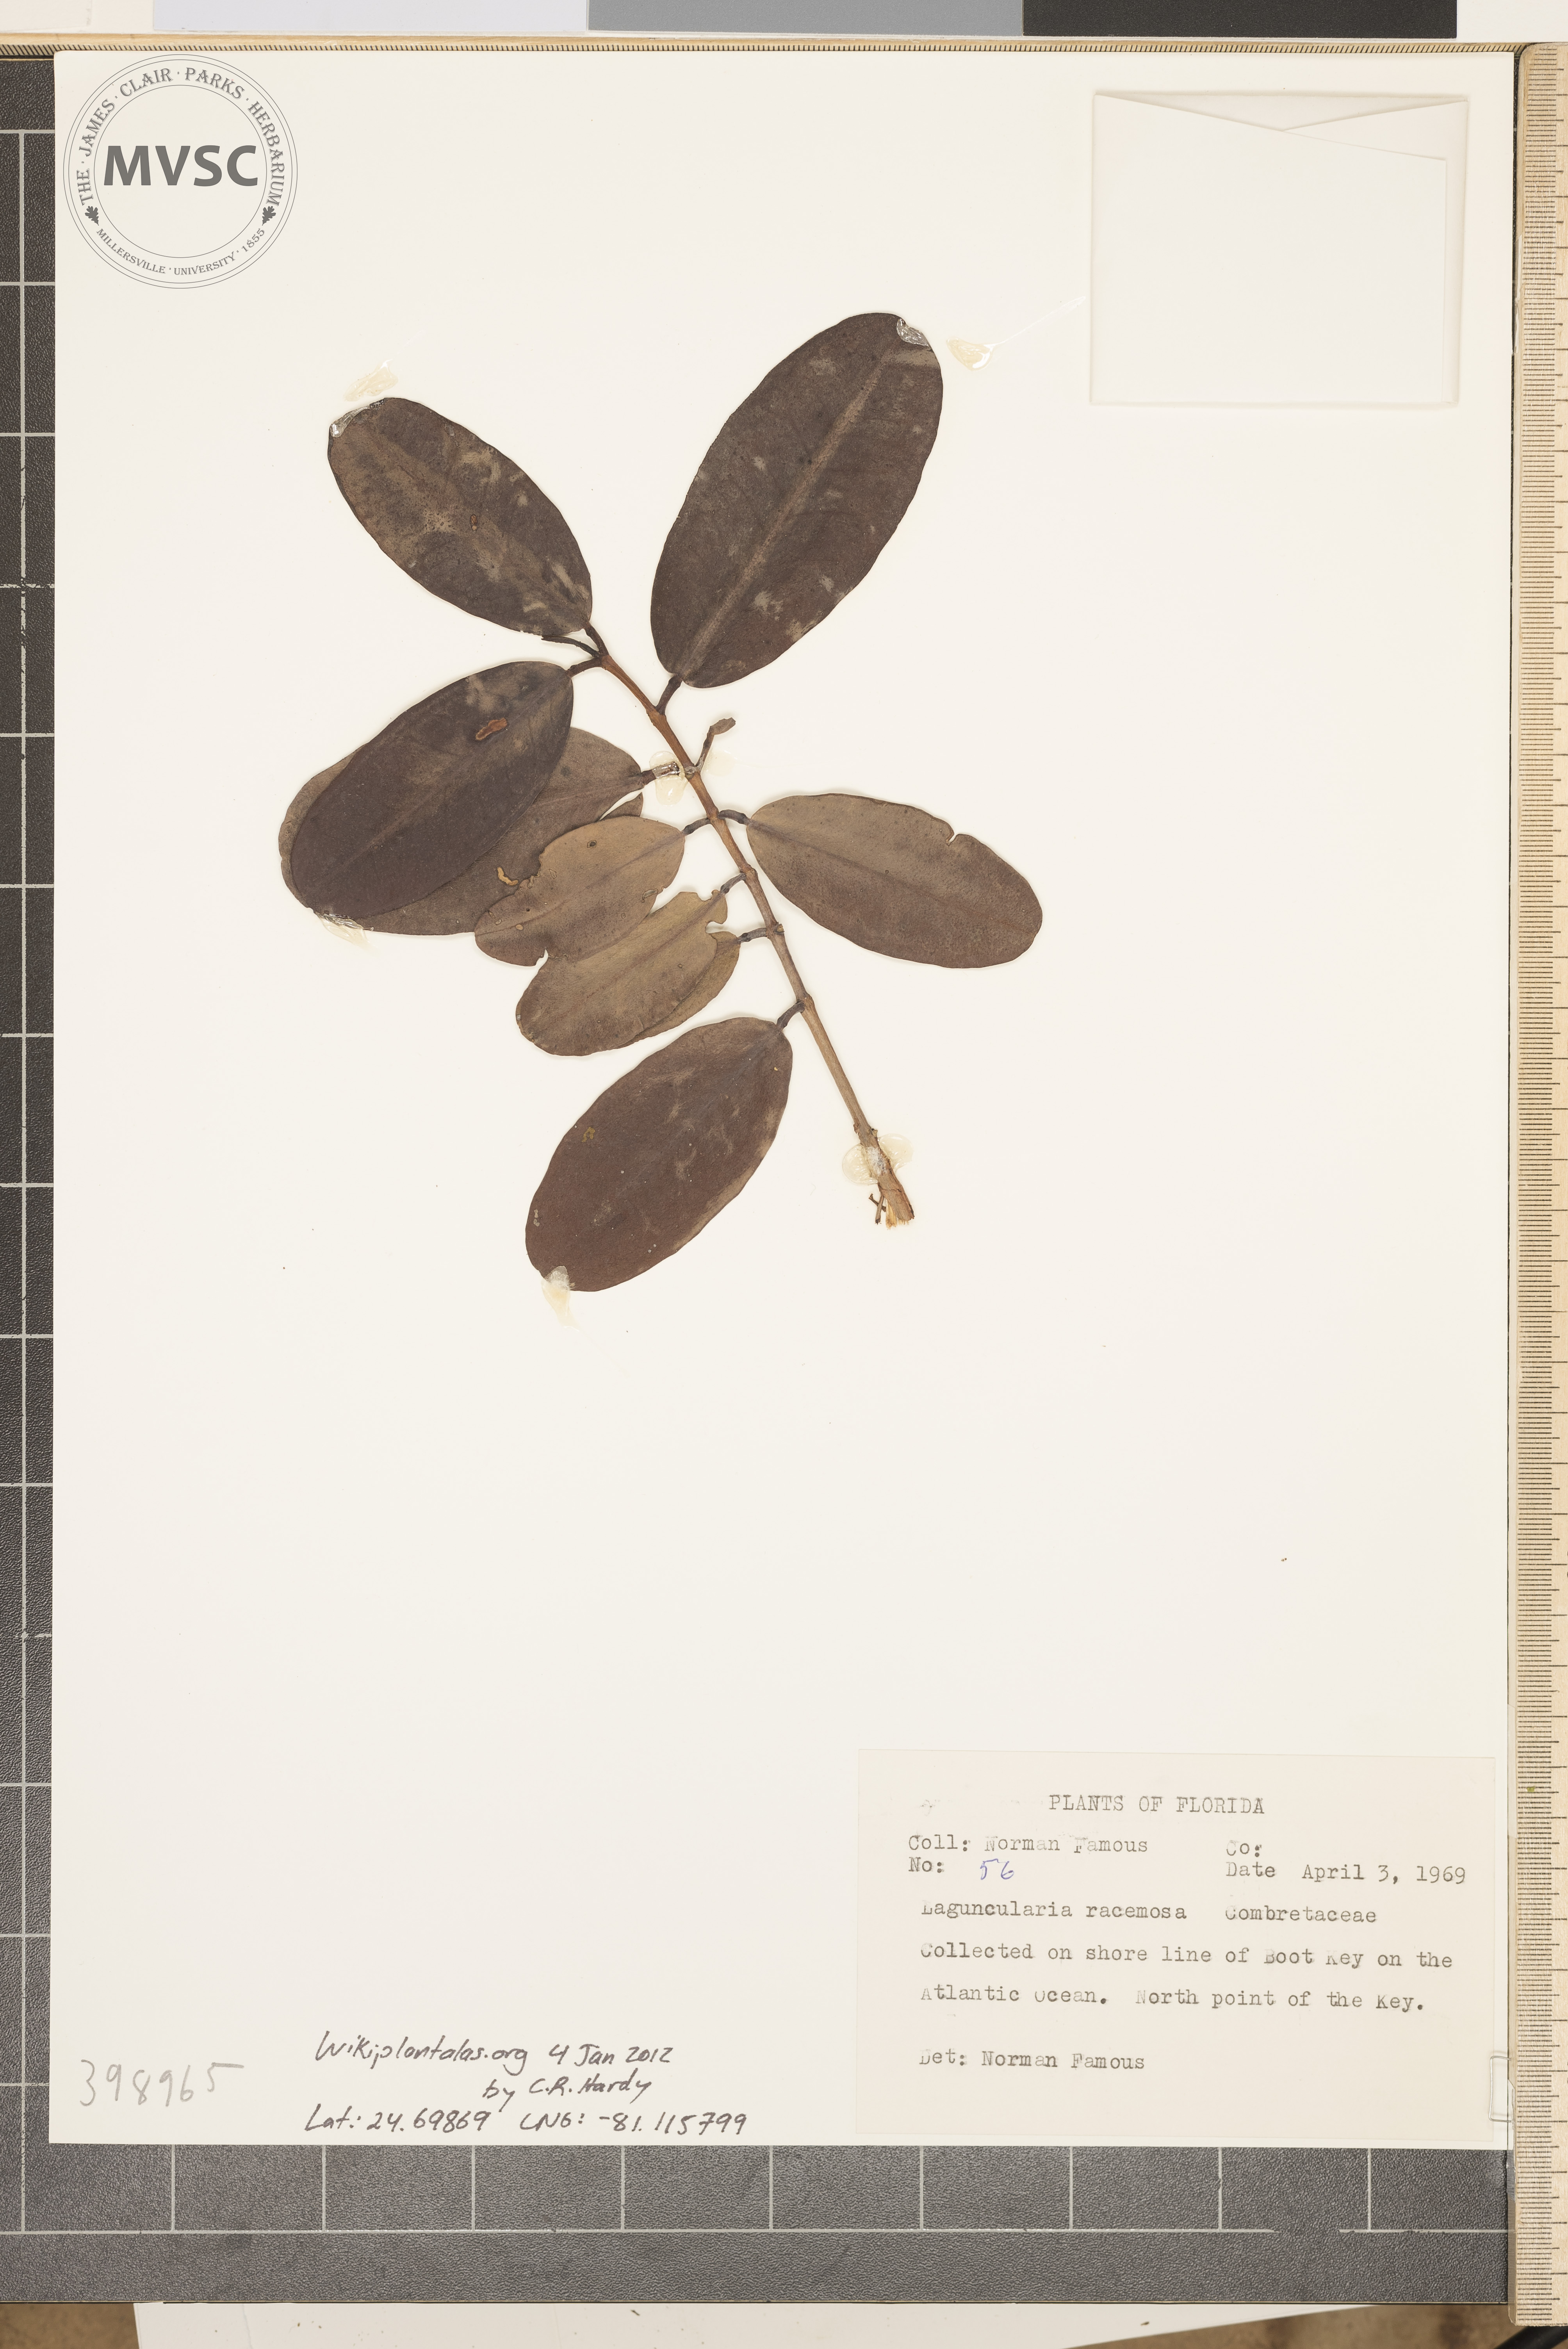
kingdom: Plantae
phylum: Tracheophyta
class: Magnoliopsida
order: Myrtales
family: Combretaceae
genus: Laguncularia
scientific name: Laguncularia racemosa
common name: white mangrove
